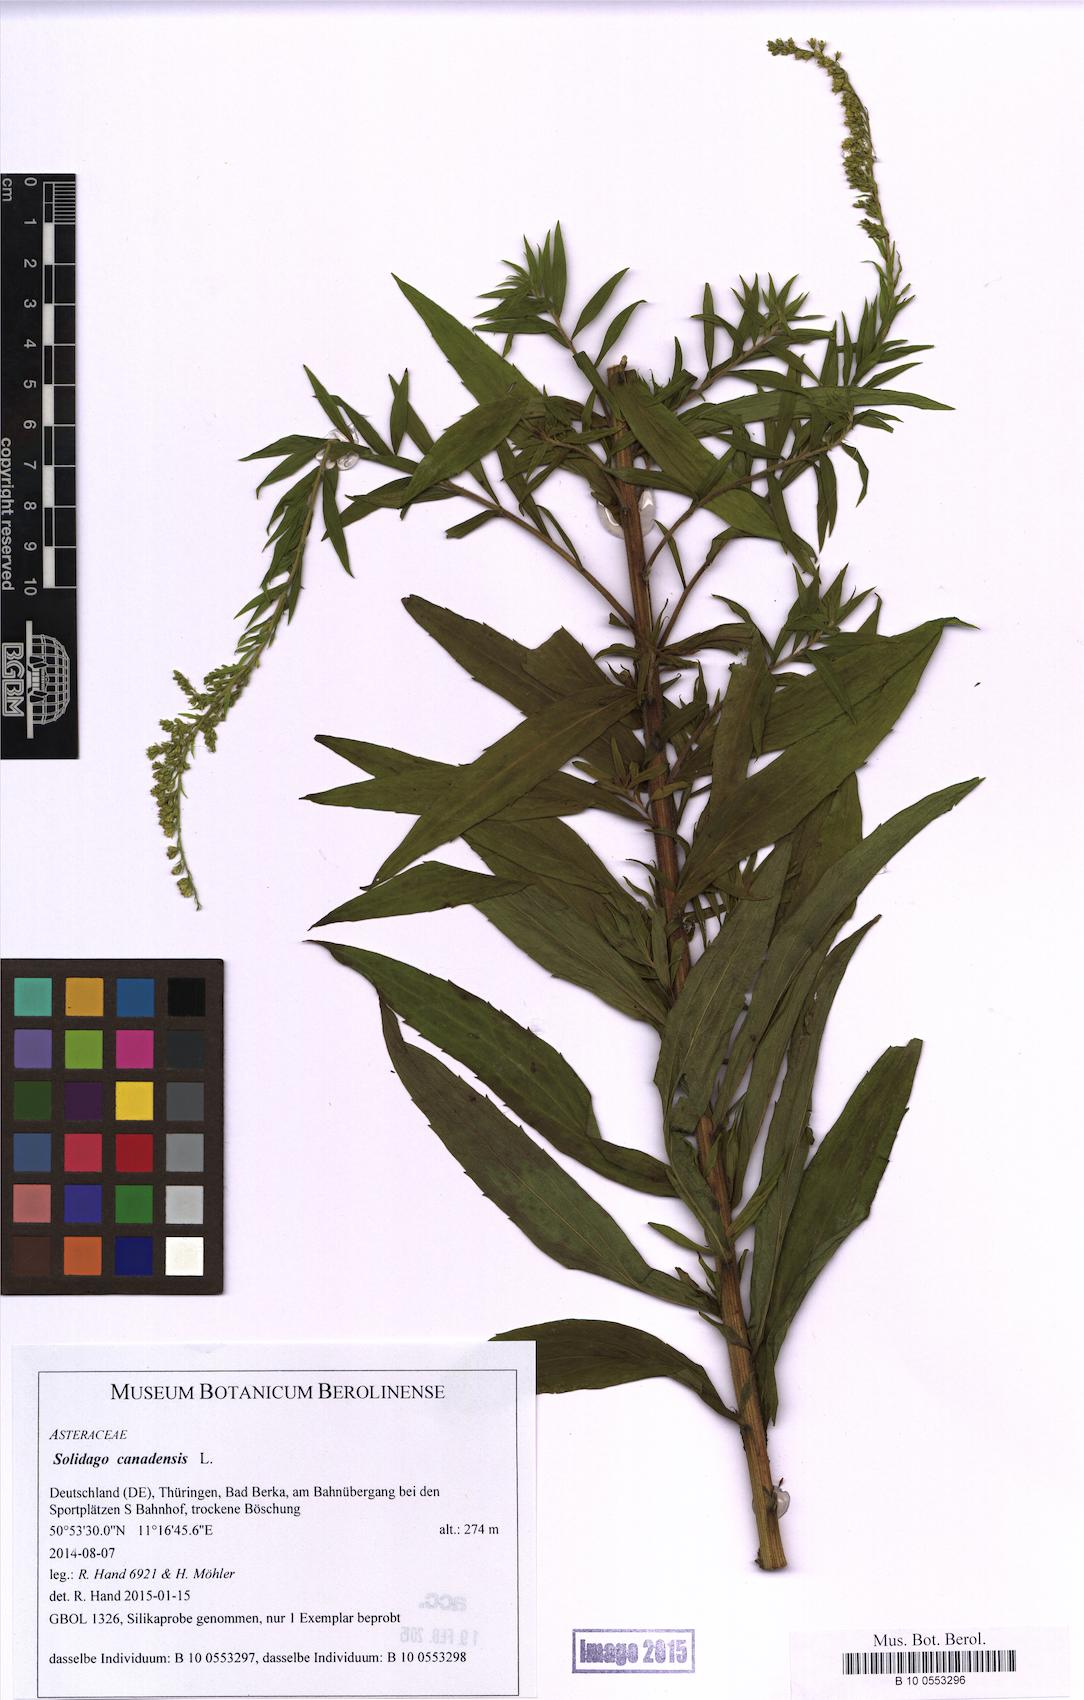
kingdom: Plantae
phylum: Tracheophyta
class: Magnoliopsida
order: Asterales
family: Asteraceae
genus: Solidago
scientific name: Solidago canadensis
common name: Canada goldenrod
